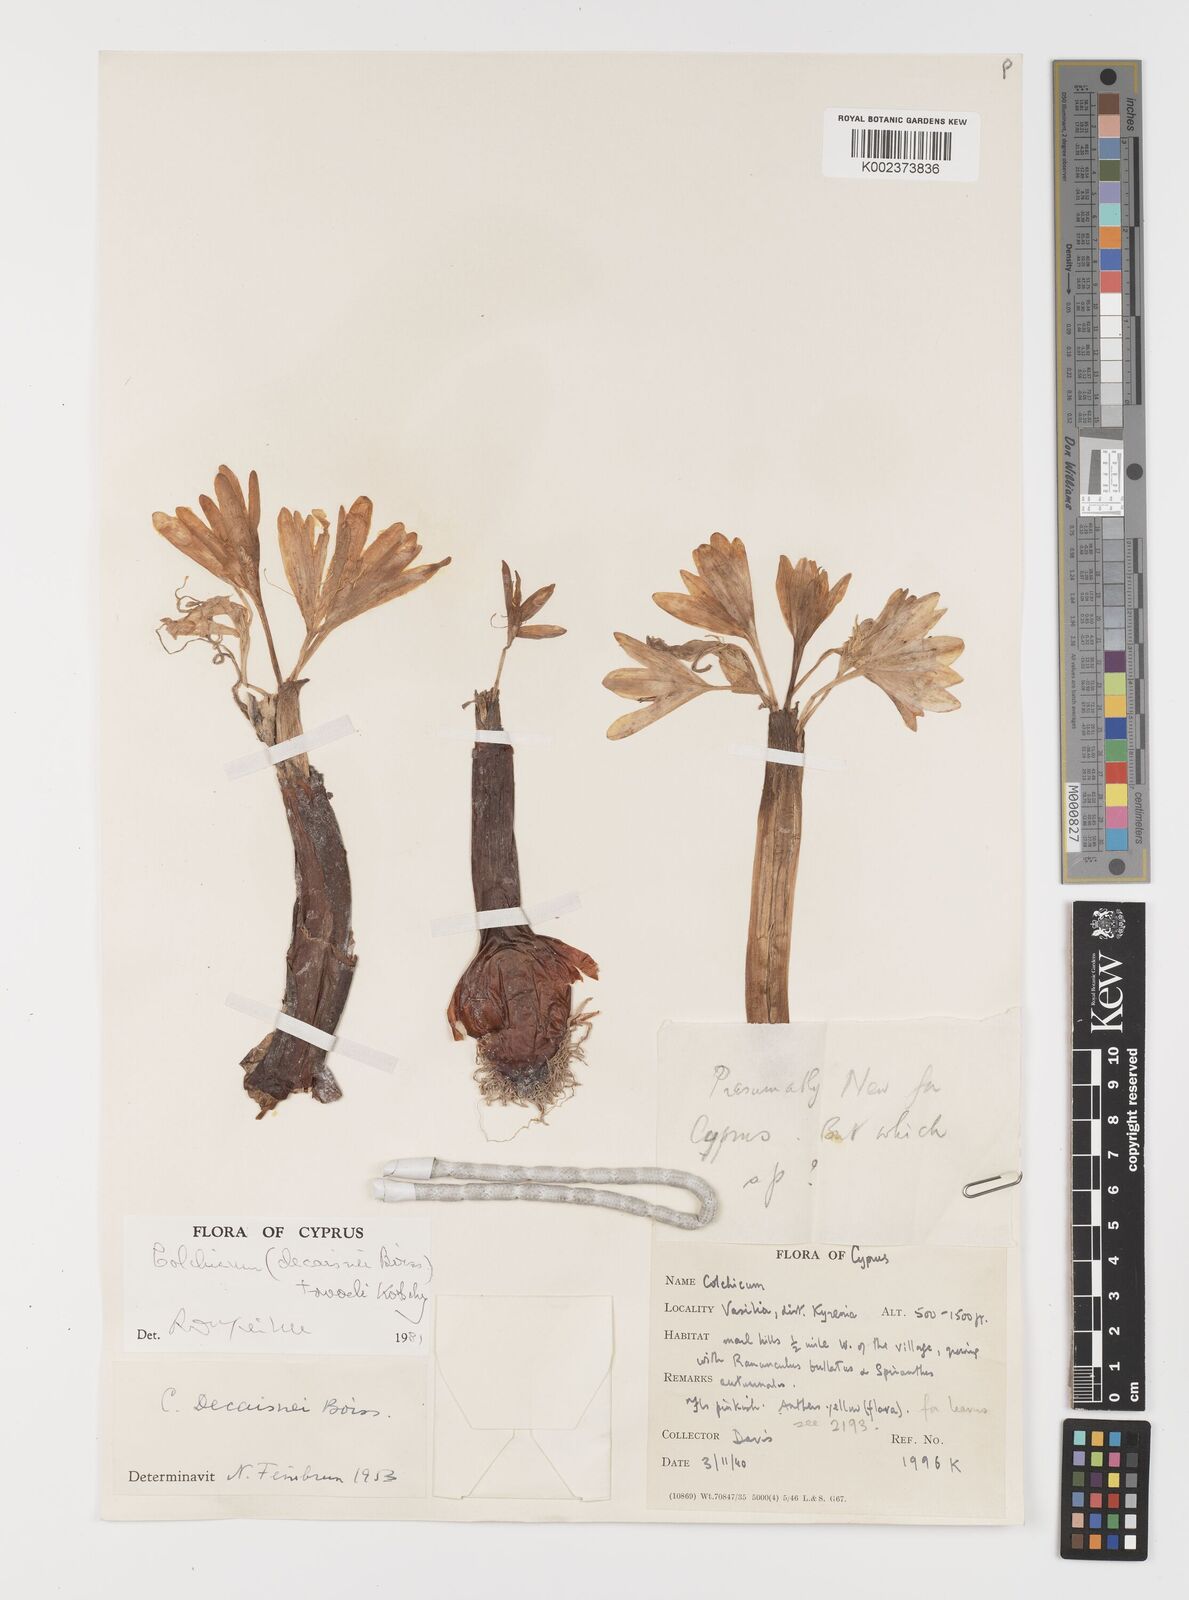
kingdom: Plantae
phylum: Tracheophyta
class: Liliopsida
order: Liliales
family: Colchicaceae
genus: Colchicum
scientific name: Colchicum troodi
